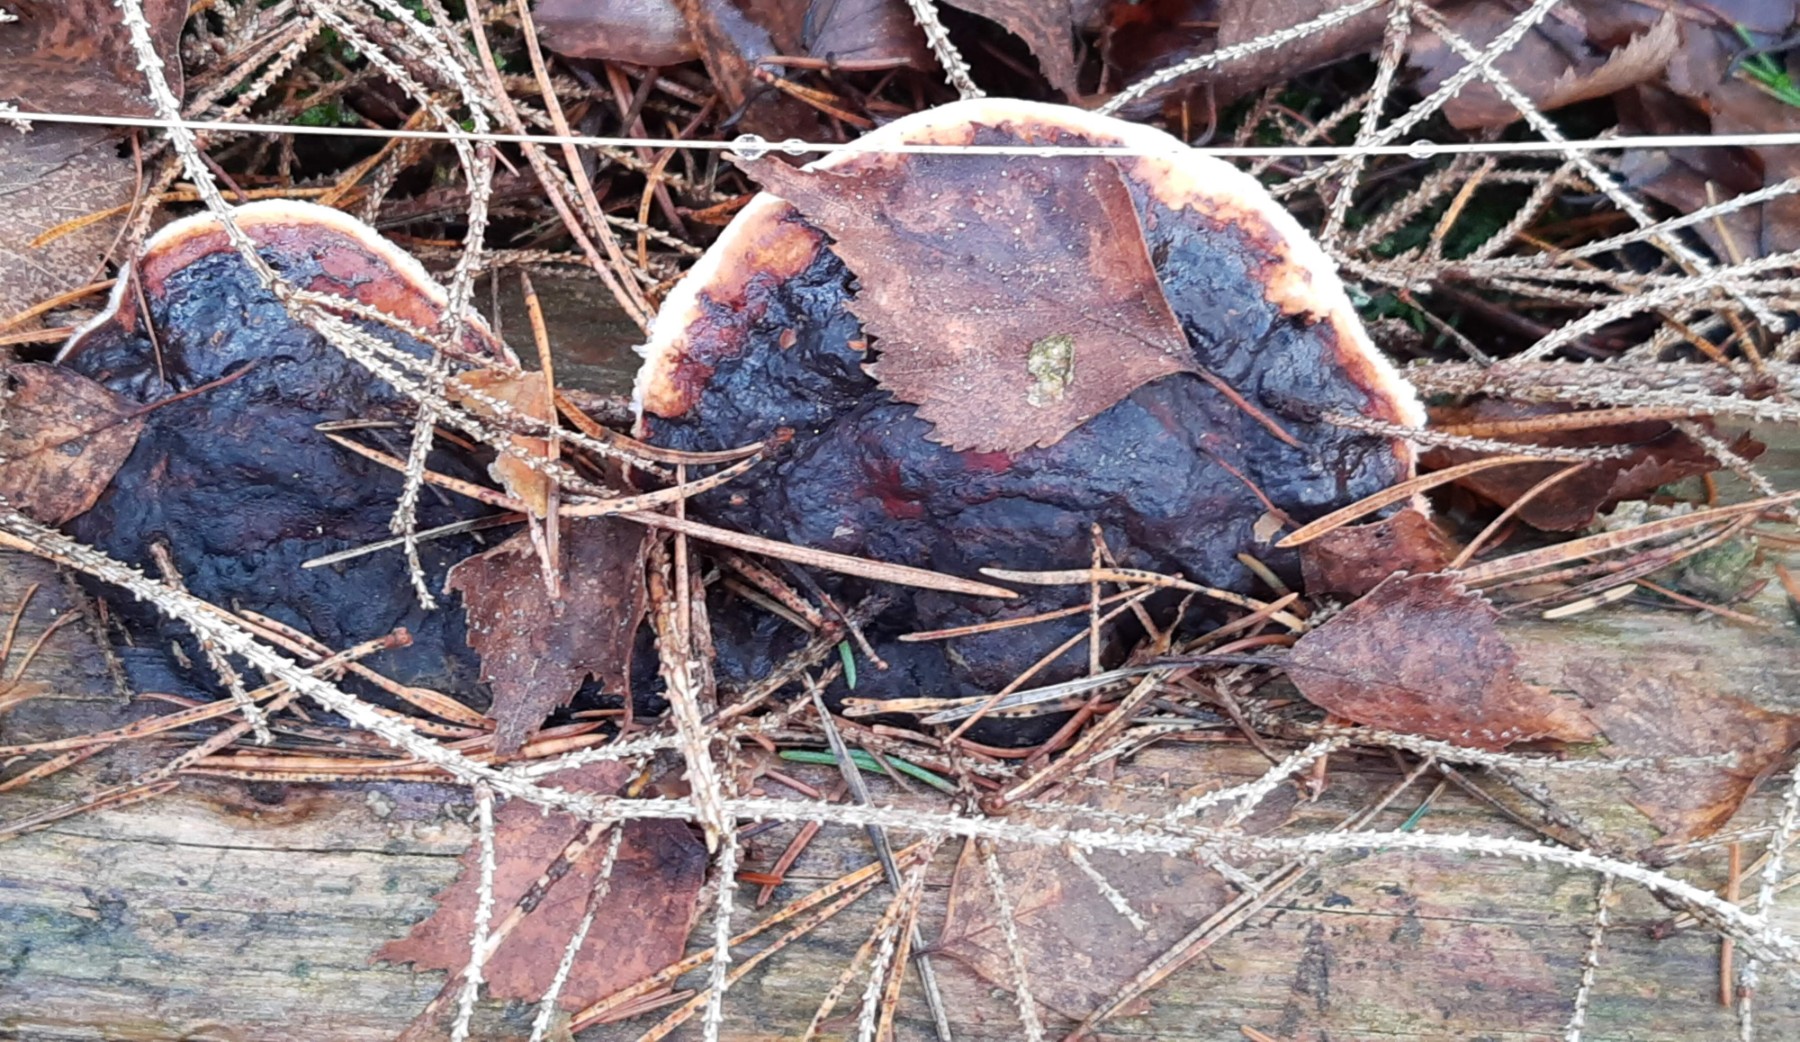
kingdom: Fungi
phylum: Basidiomycota
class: Agaricomycetes
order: Polyporales
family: Fomitopsidaceae
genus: Fomitopsis
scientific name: Fomitopsis pinicola
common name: randbæltet hovporesvamp
